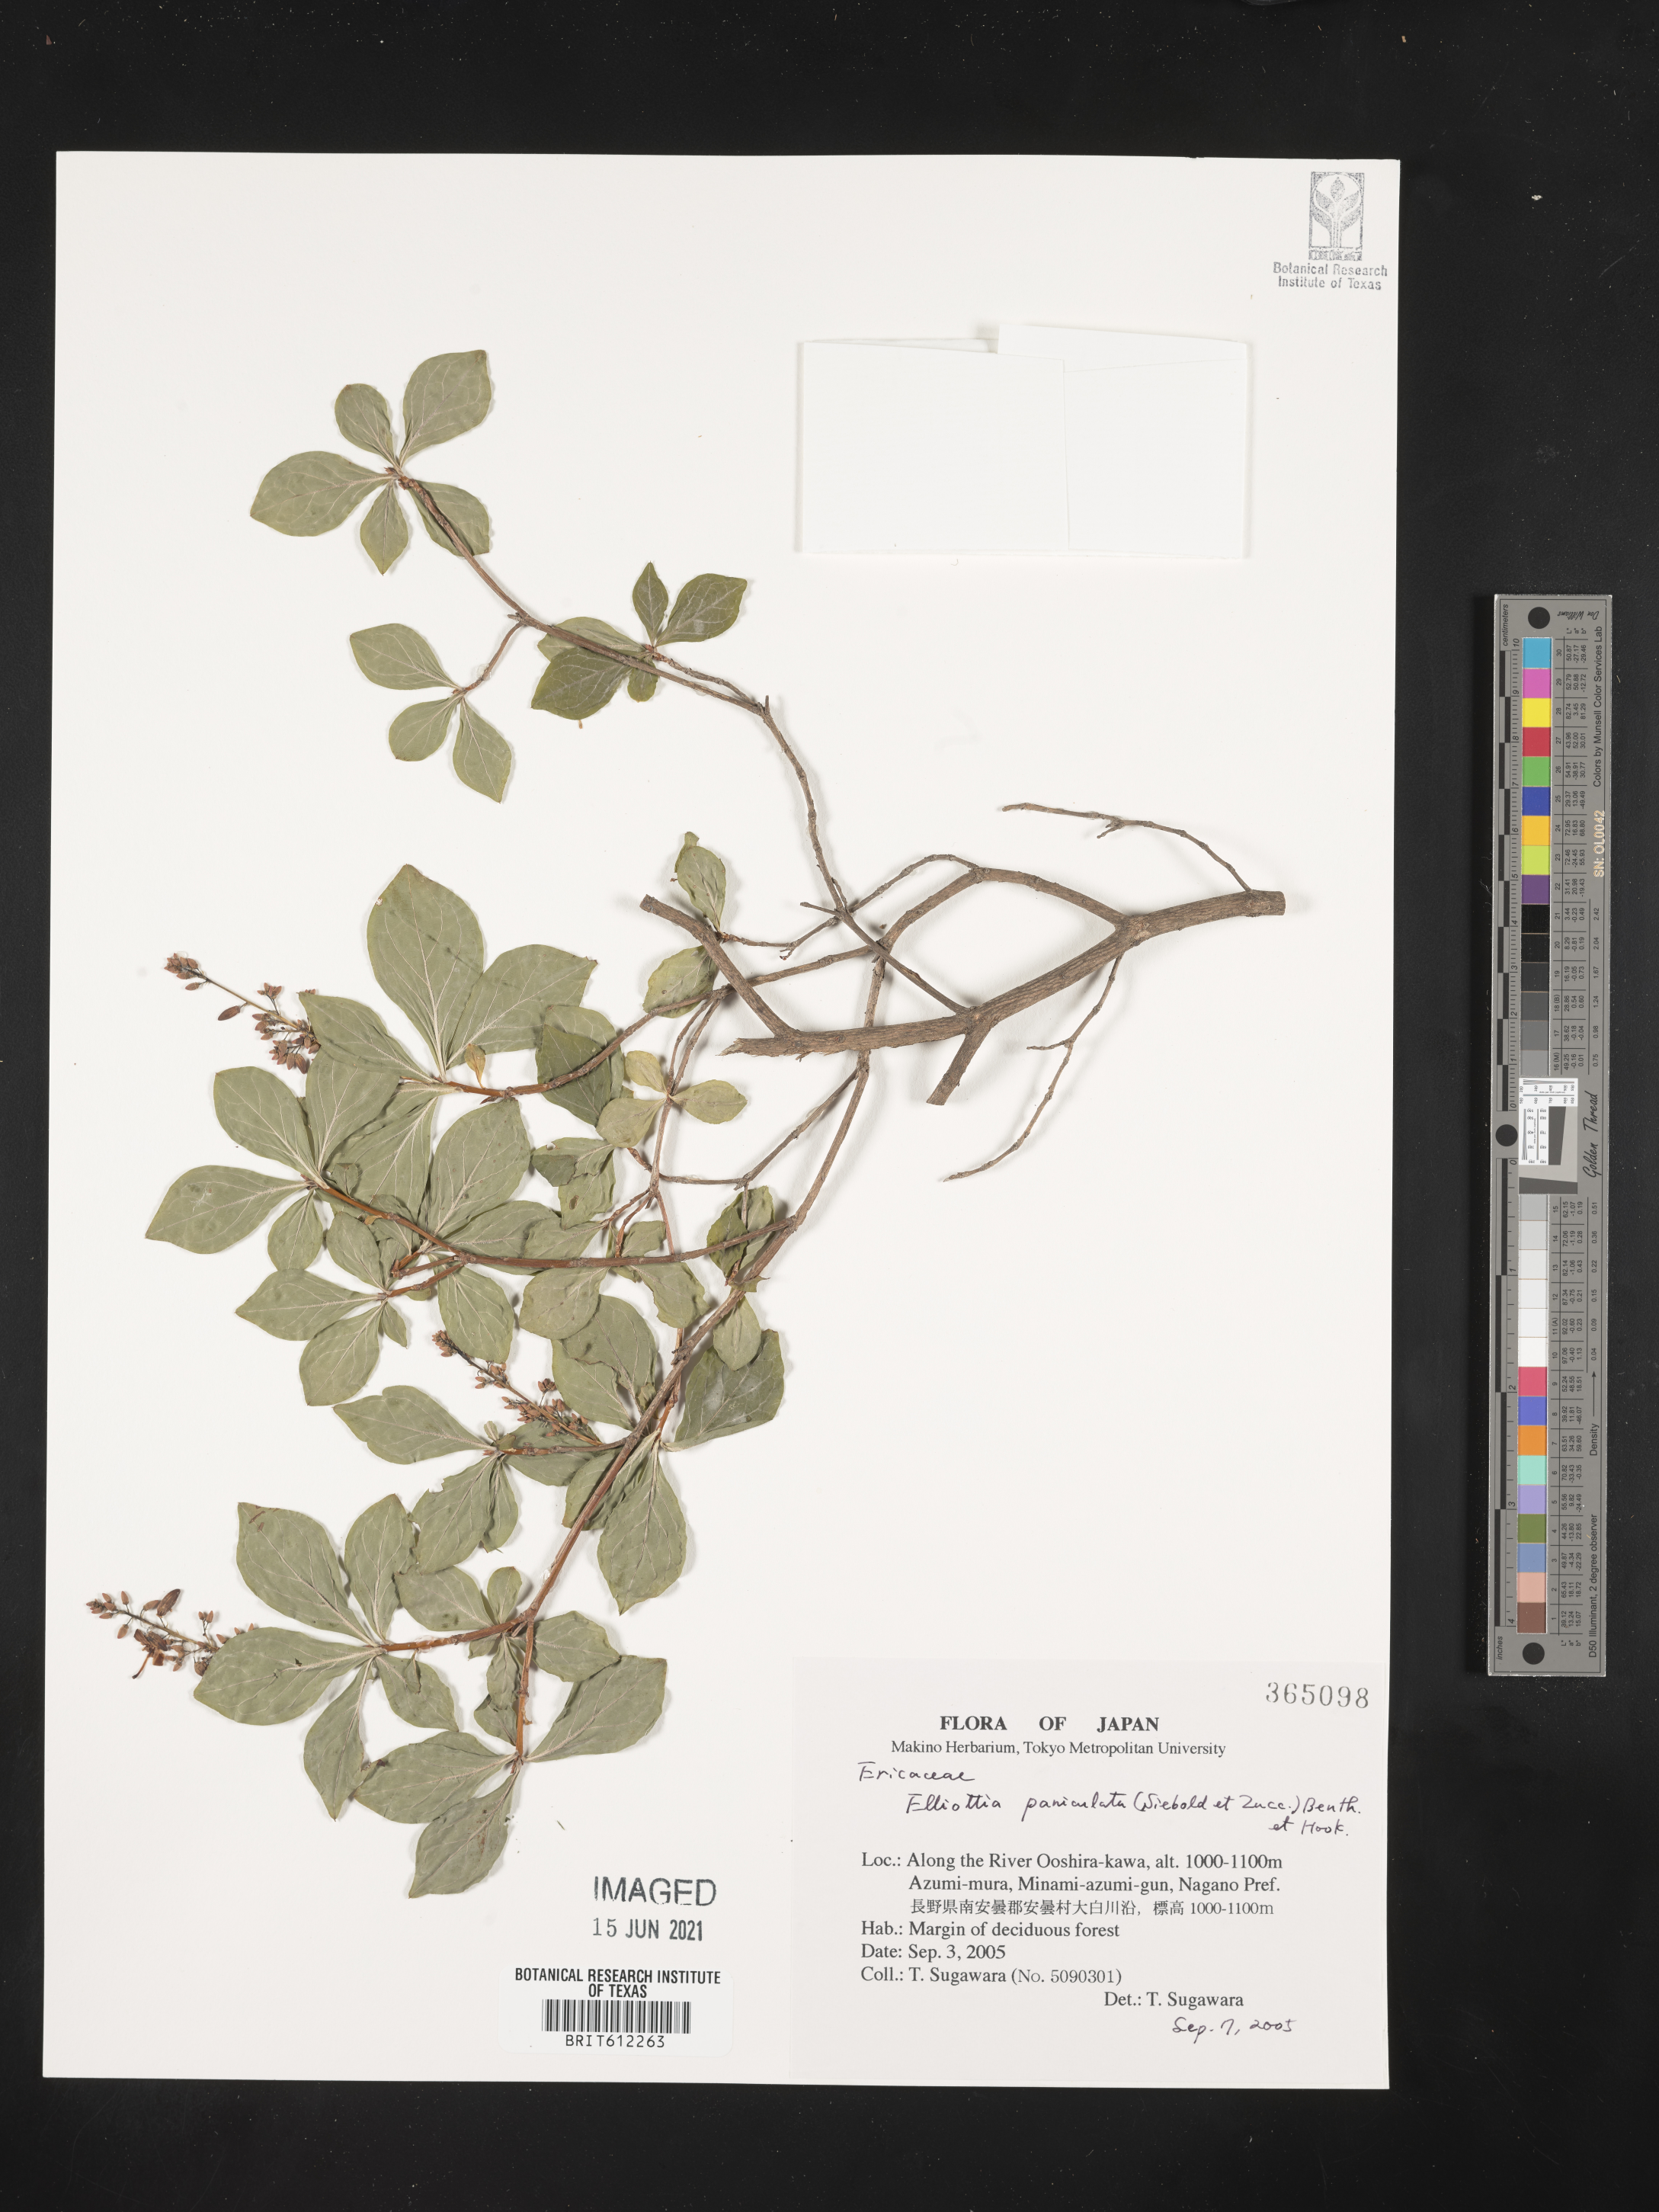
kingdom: Plantae
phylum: Tracheophyta
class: Magnoliopsida
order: Ericales
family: Ericaceae
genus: Elliottia
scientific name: Elliottia paniculata
